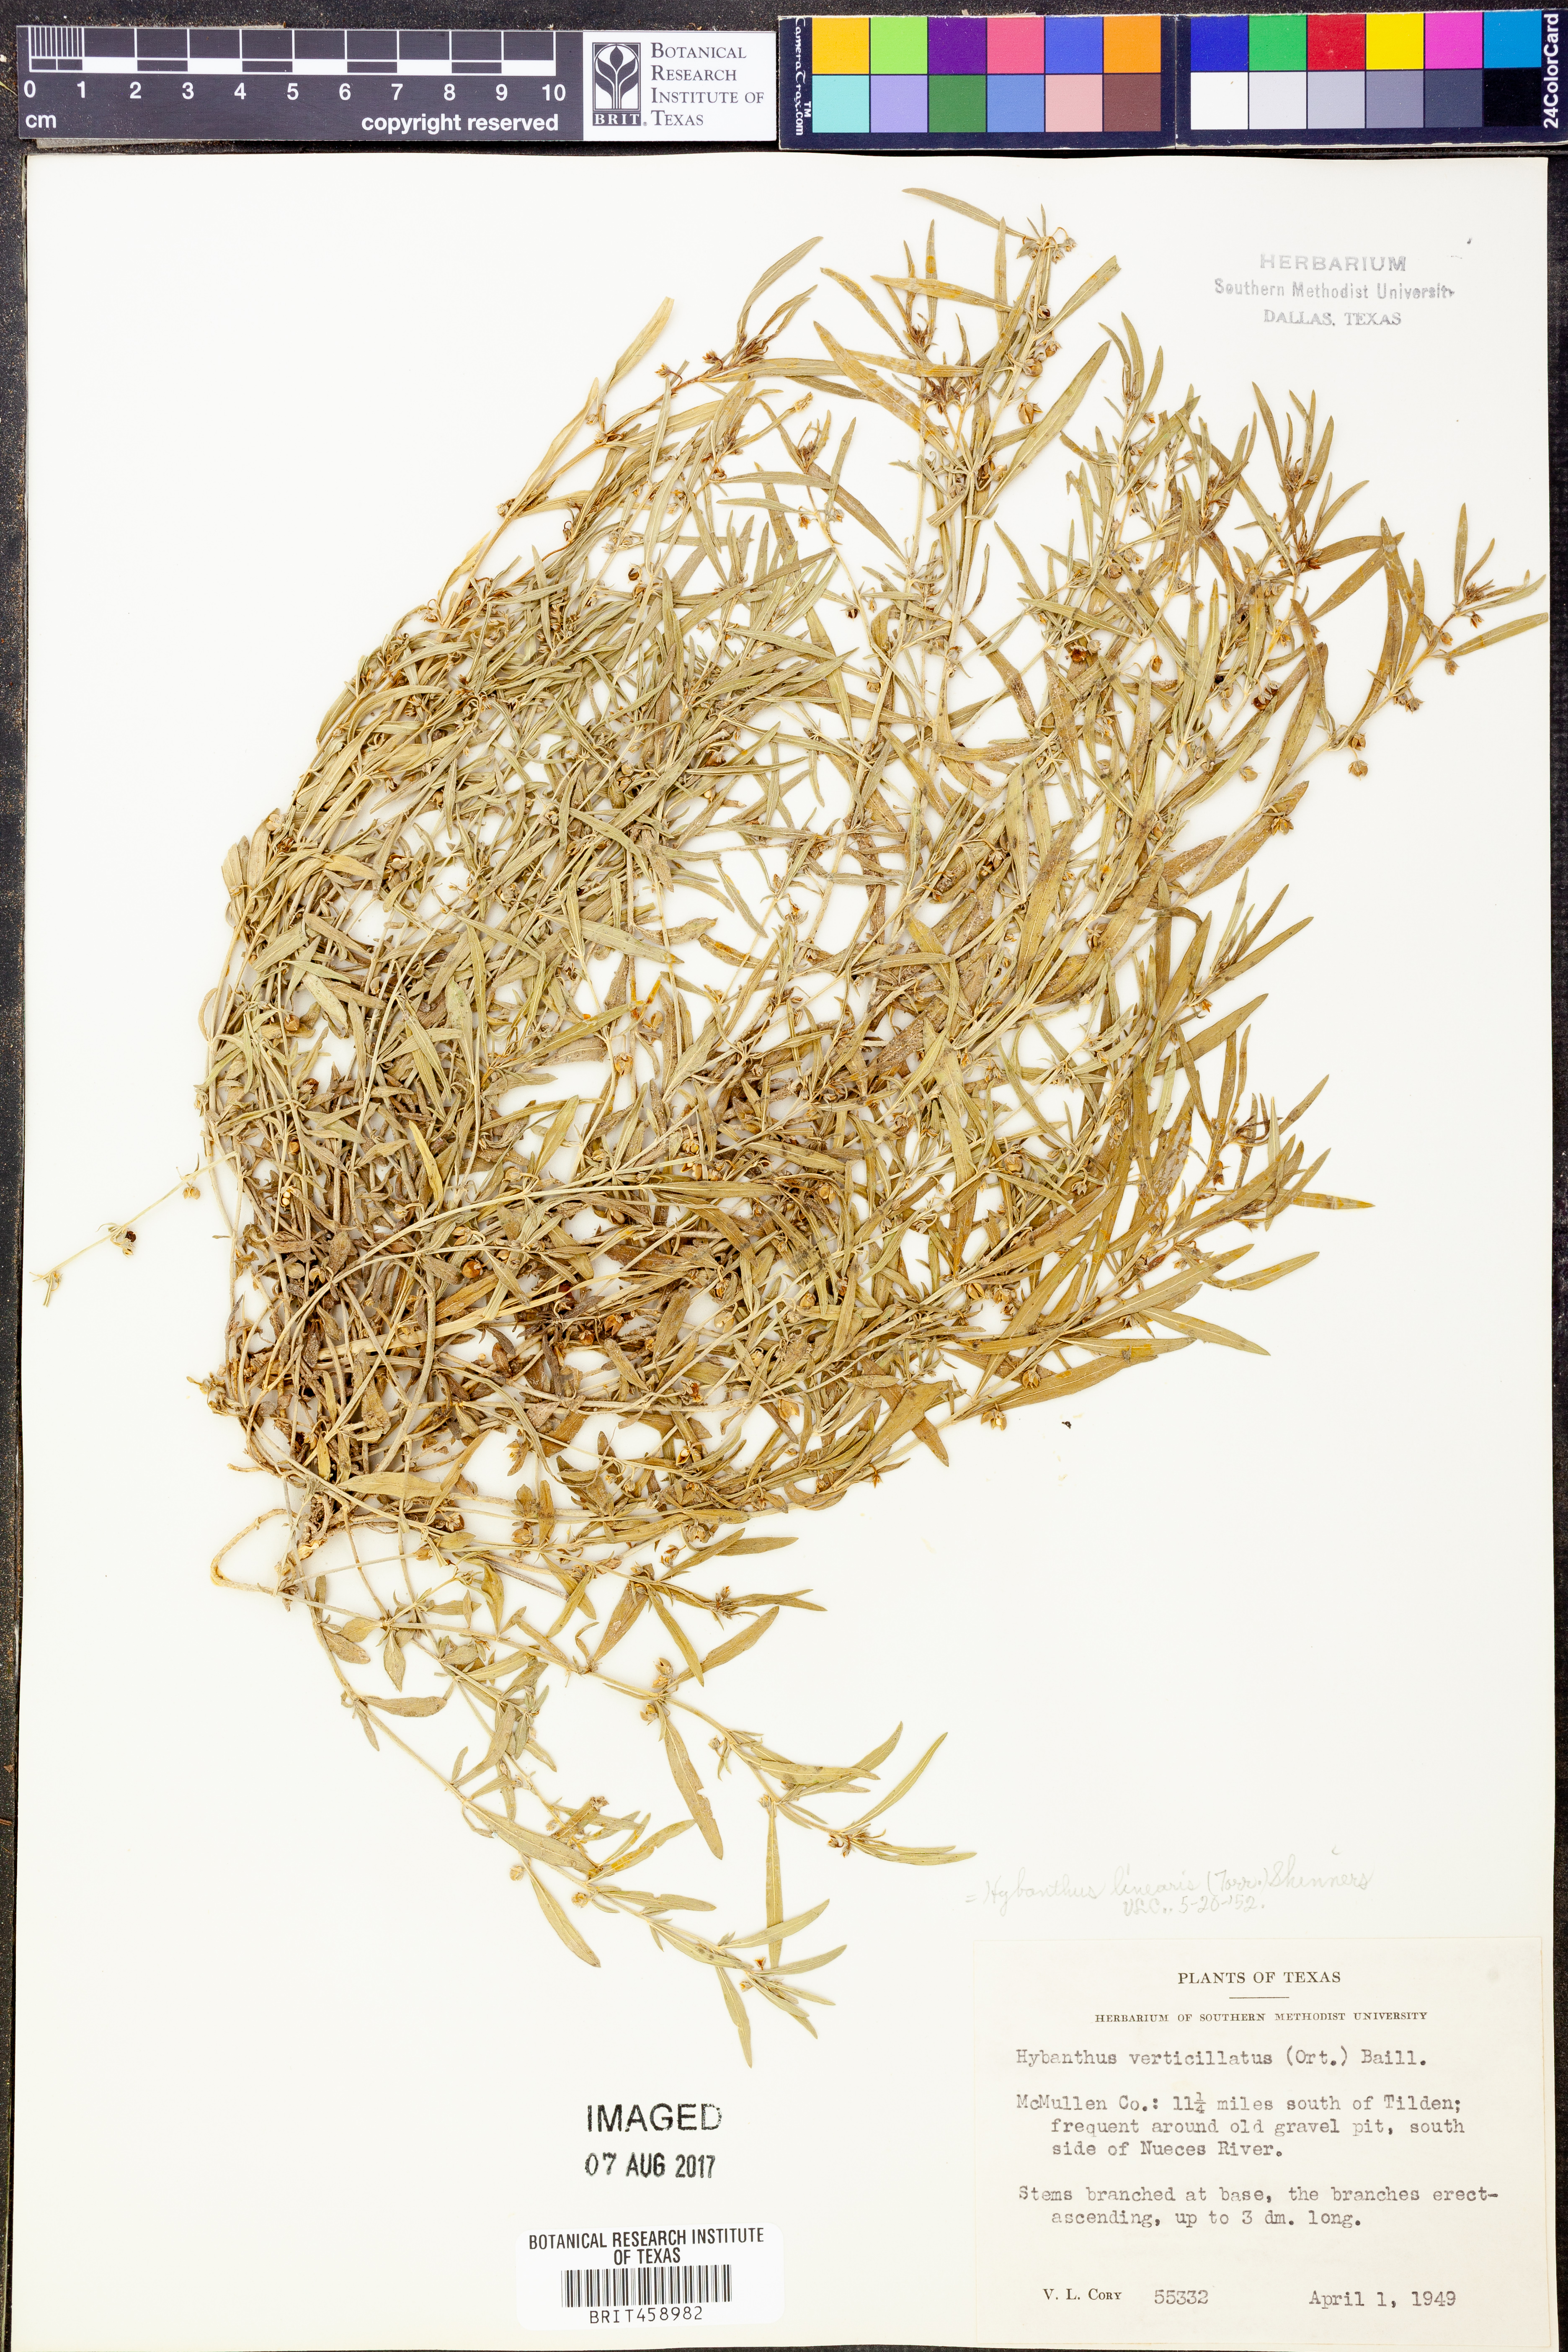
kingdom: Plantae
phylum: Tracheophyta
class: Magnoliopsida
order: Malpighiales
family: Violaceae
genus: Pombalia
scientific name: Pombalia verticillata
